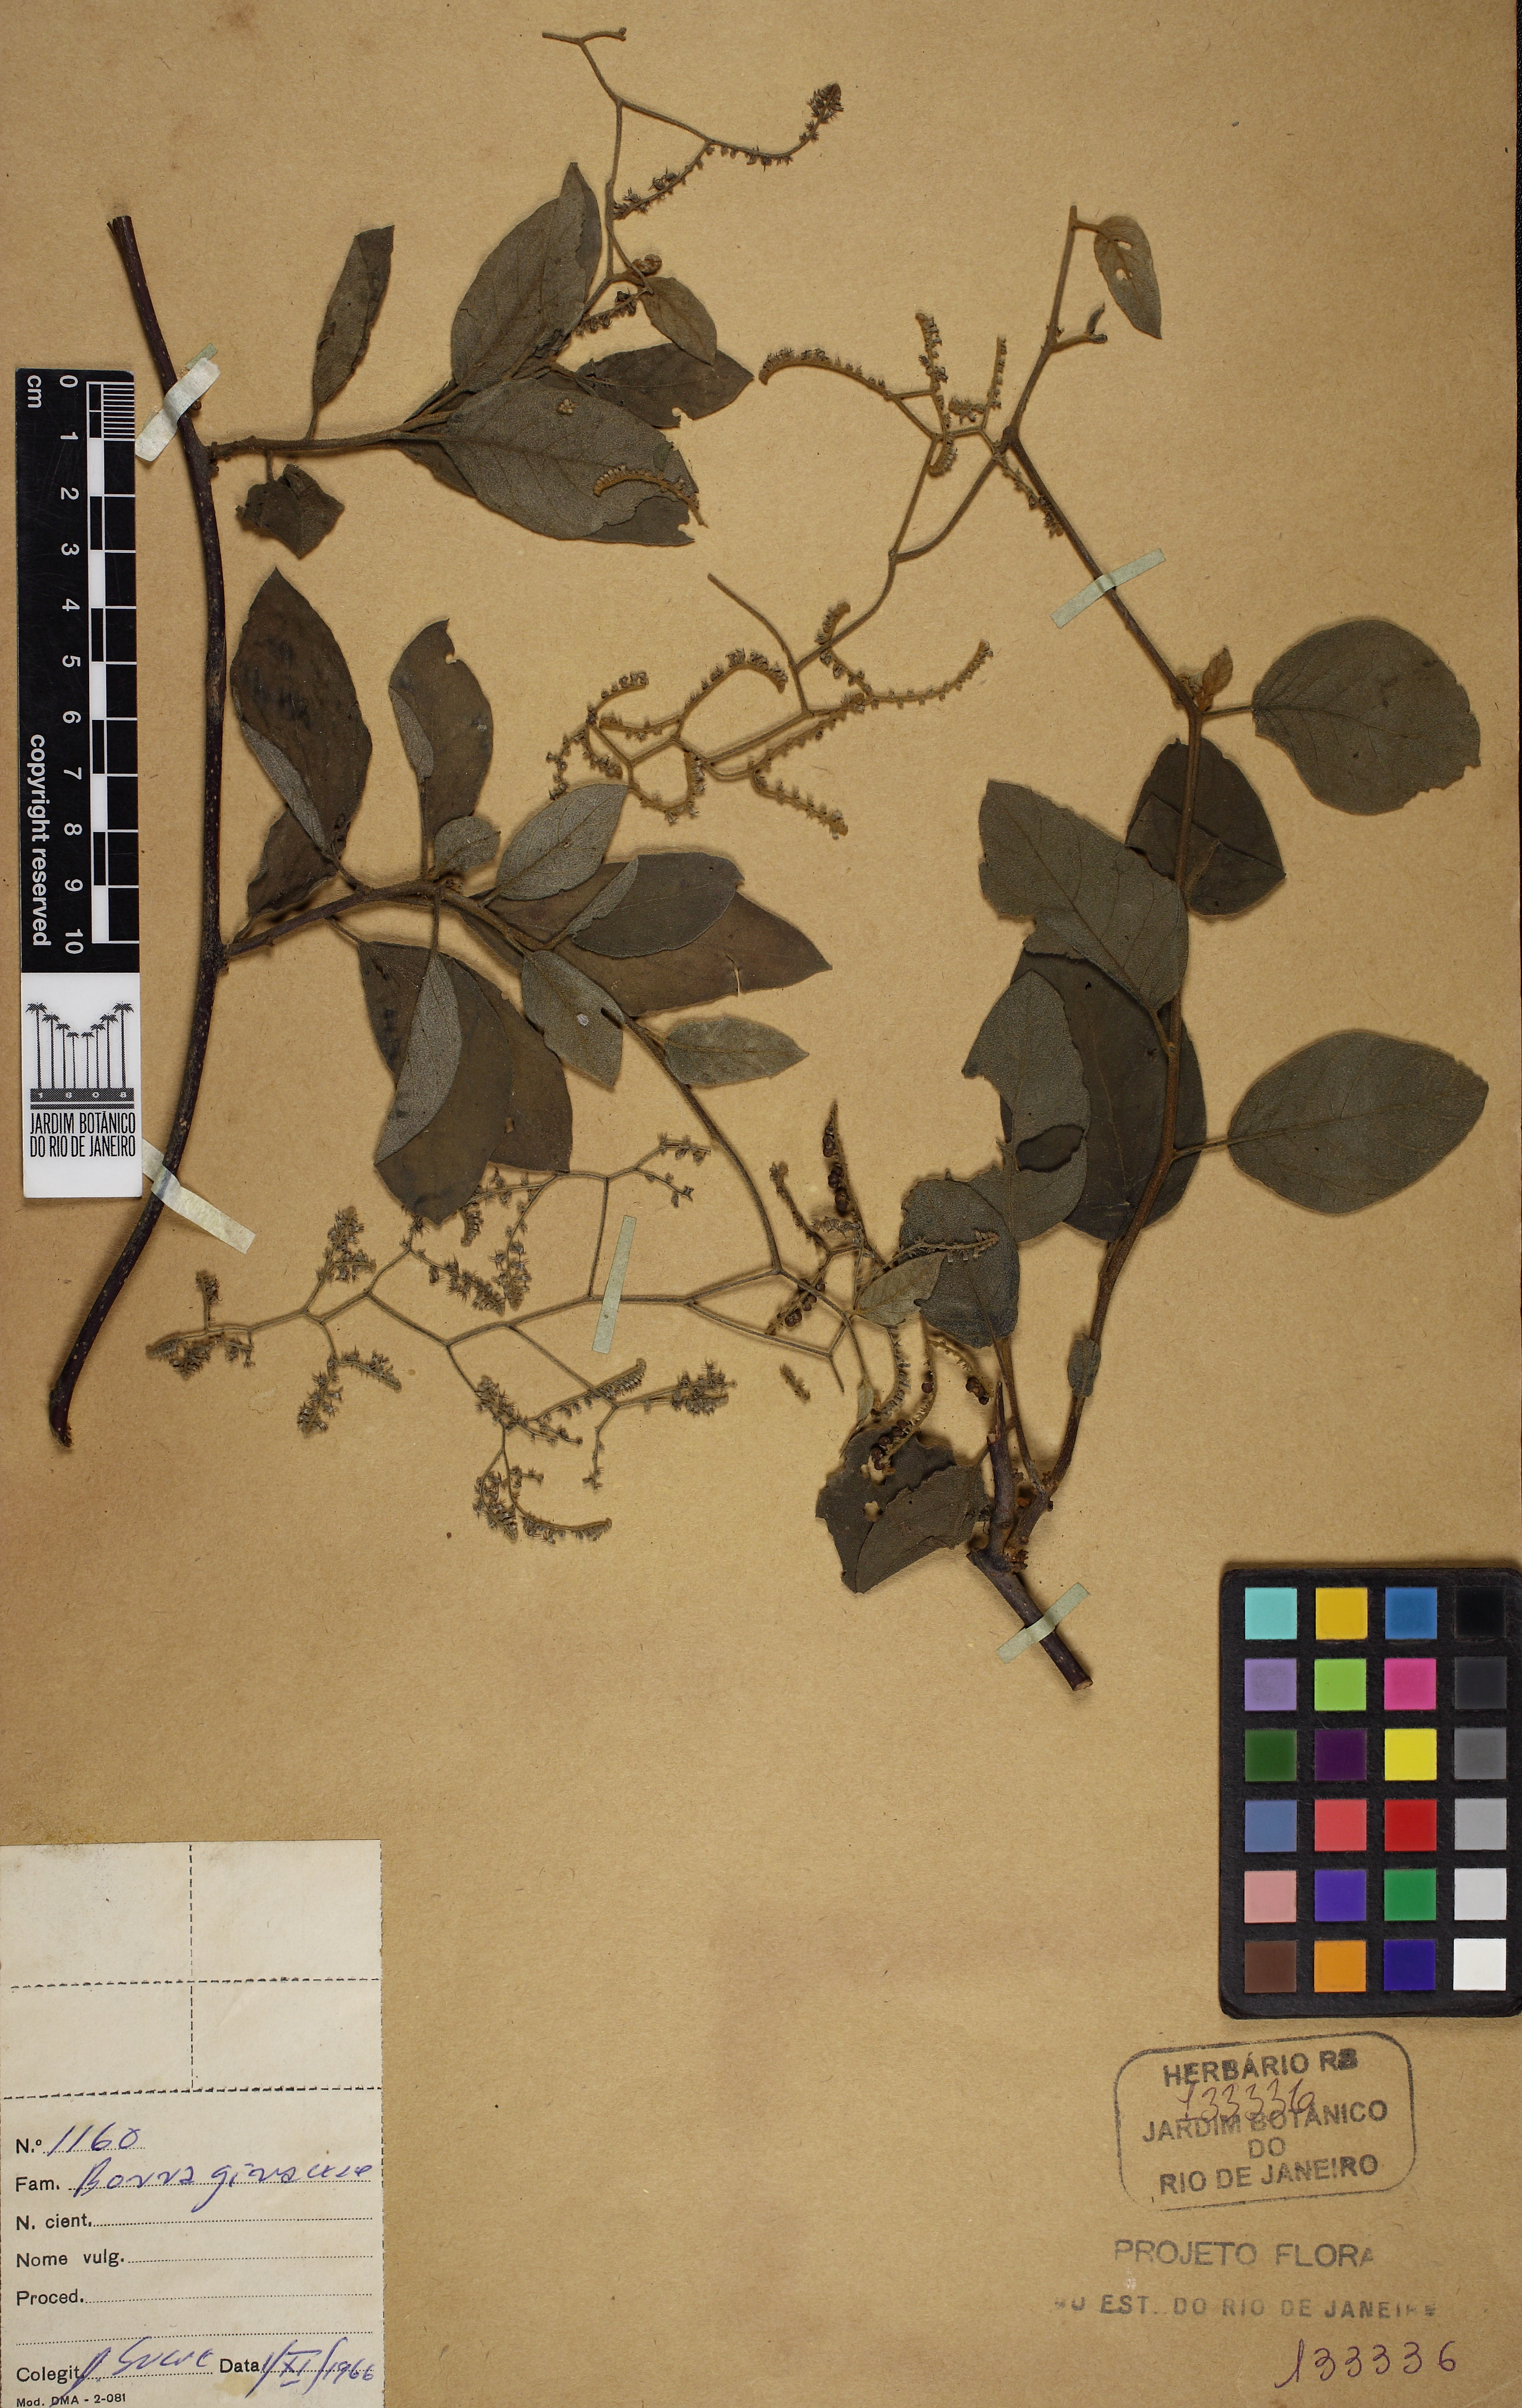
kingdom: Plantae
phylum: Tracheophyta
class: Magnoliopsida
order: Boraginales
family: Heliotropiaceae
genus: Myriopus
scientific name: Myriopus membranaceus
